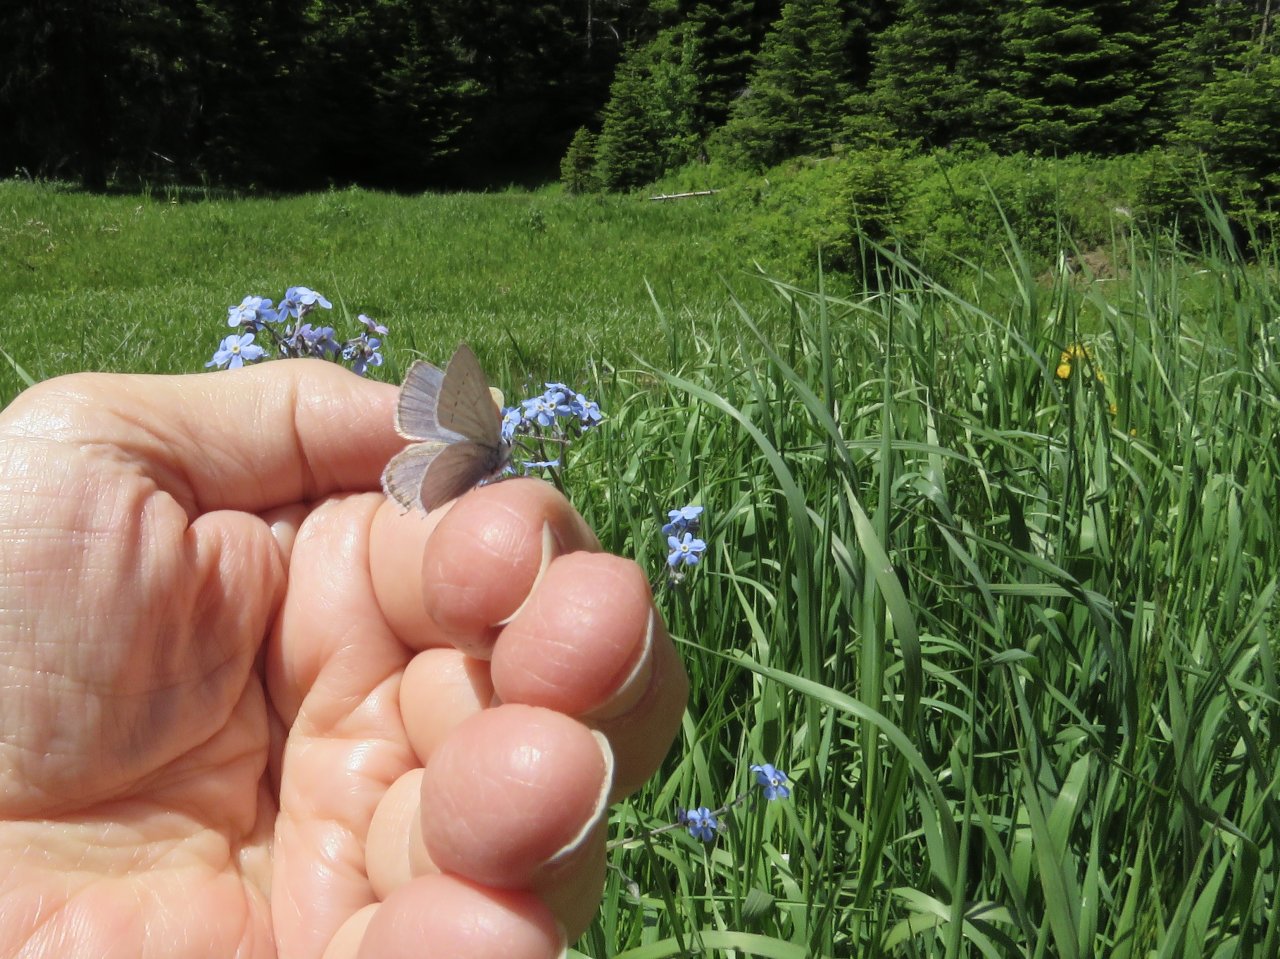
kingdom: Animalia
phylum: Arthropoda
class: Insecta
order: Lepidoptera
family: Lycaenidae
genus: Elkalyce
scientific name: Elkalyce amyntula
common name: Western Tailed-Blue
